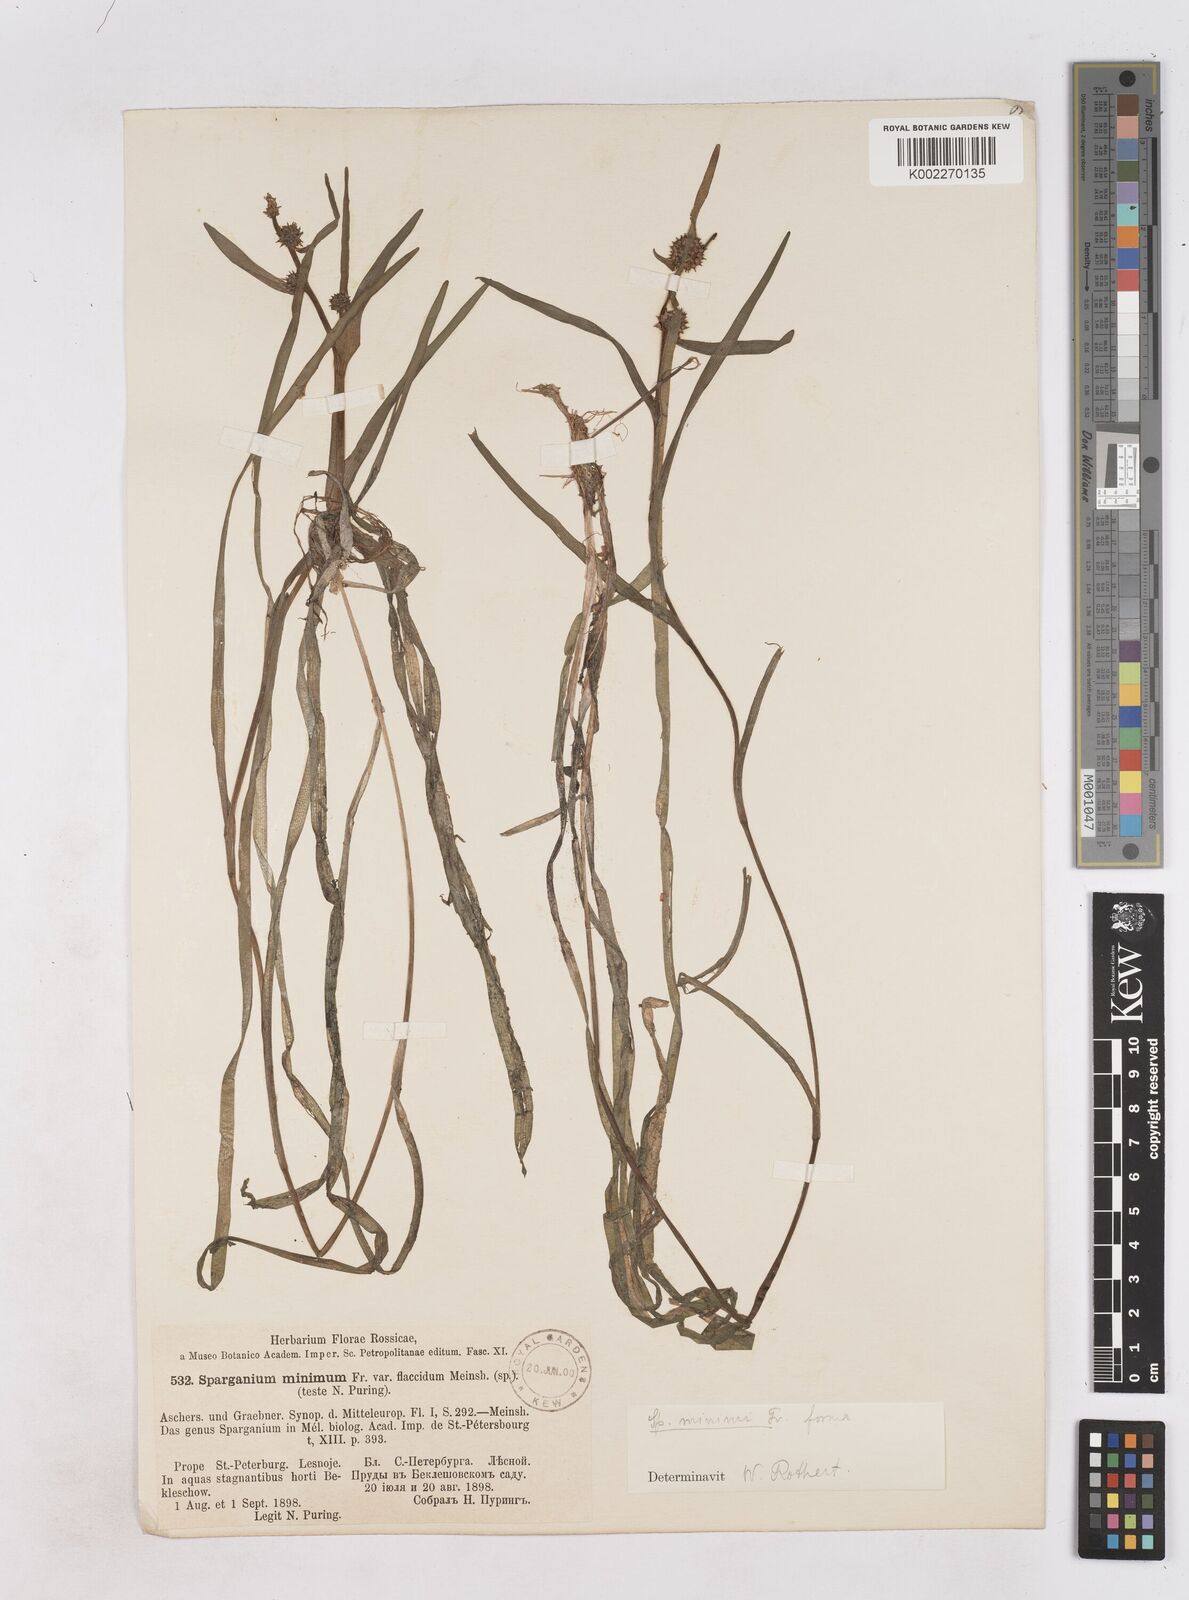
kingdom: Plantae
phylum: Tracheophyta
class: Liliopsida
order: Poales
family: Typhaceae
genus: Sparganium
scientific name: Sparganium natans
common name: Least bur-reed
